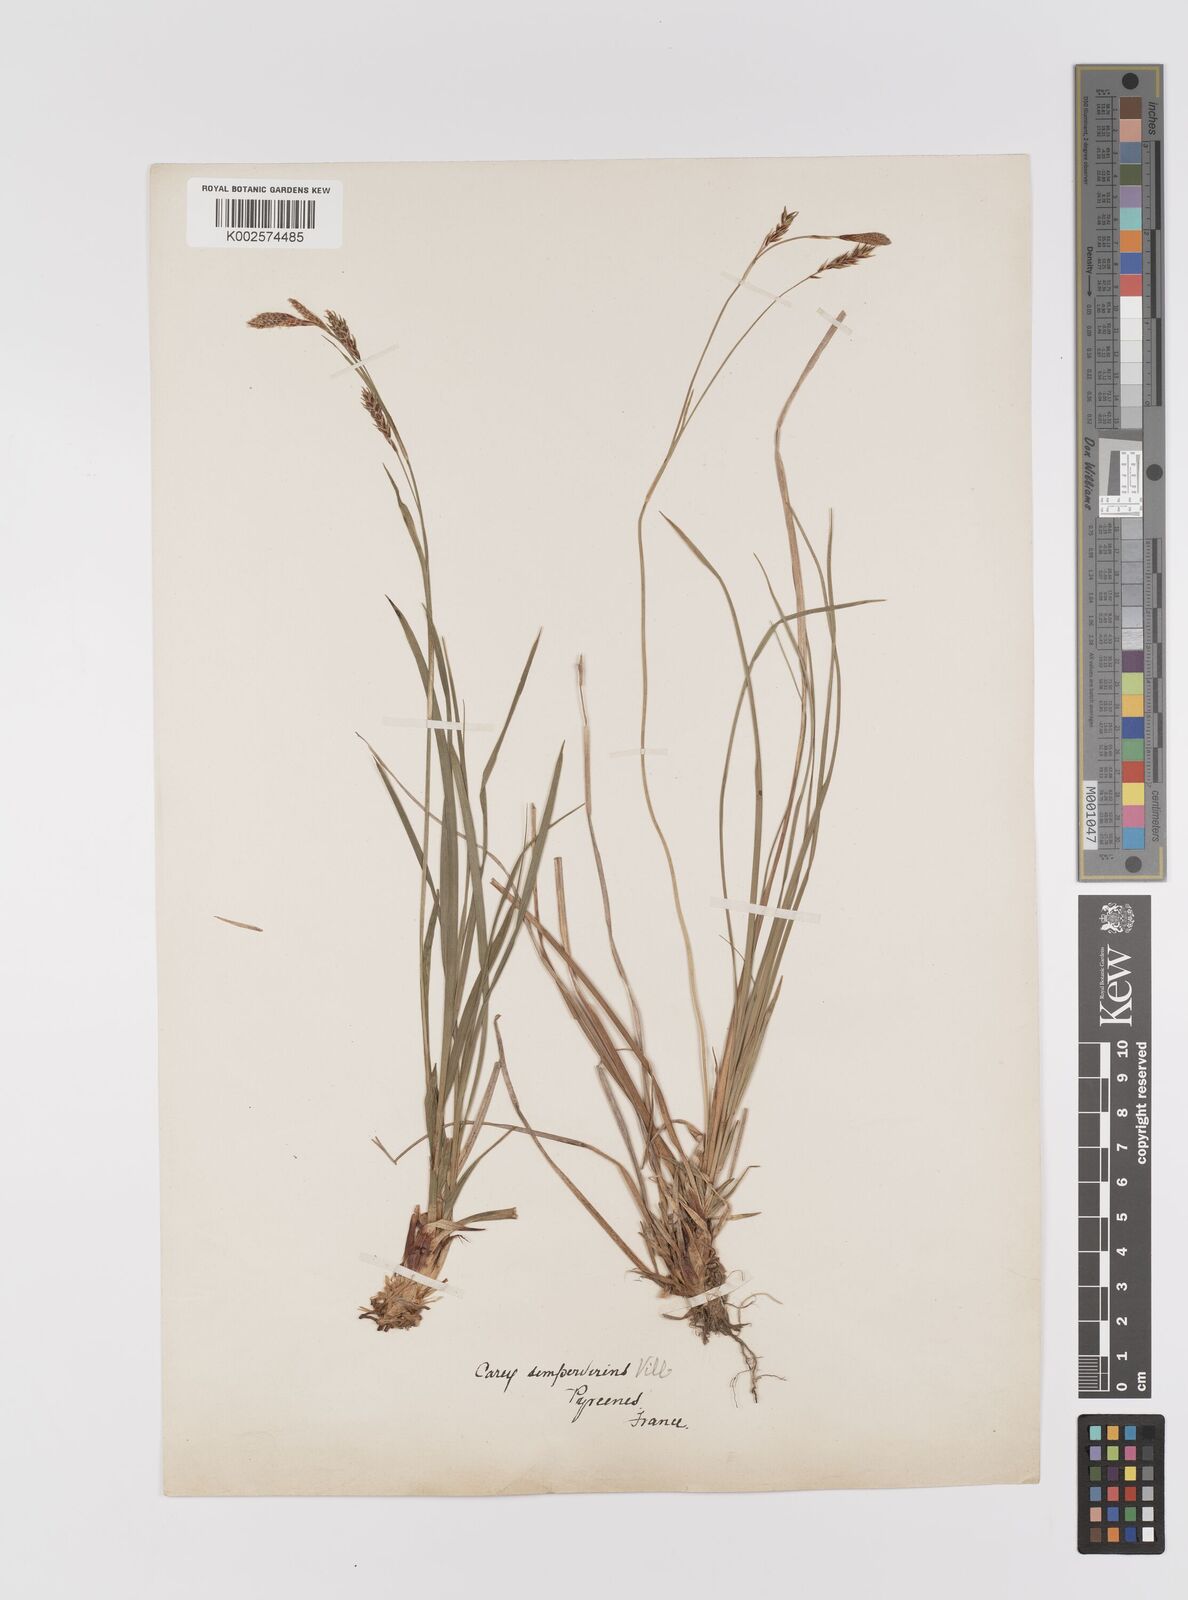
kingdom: Plantae
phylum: Tracheophyta
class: Liliopsida
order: Poales
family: Cyperaceae
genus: Carex
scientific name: Carex sempervirens
